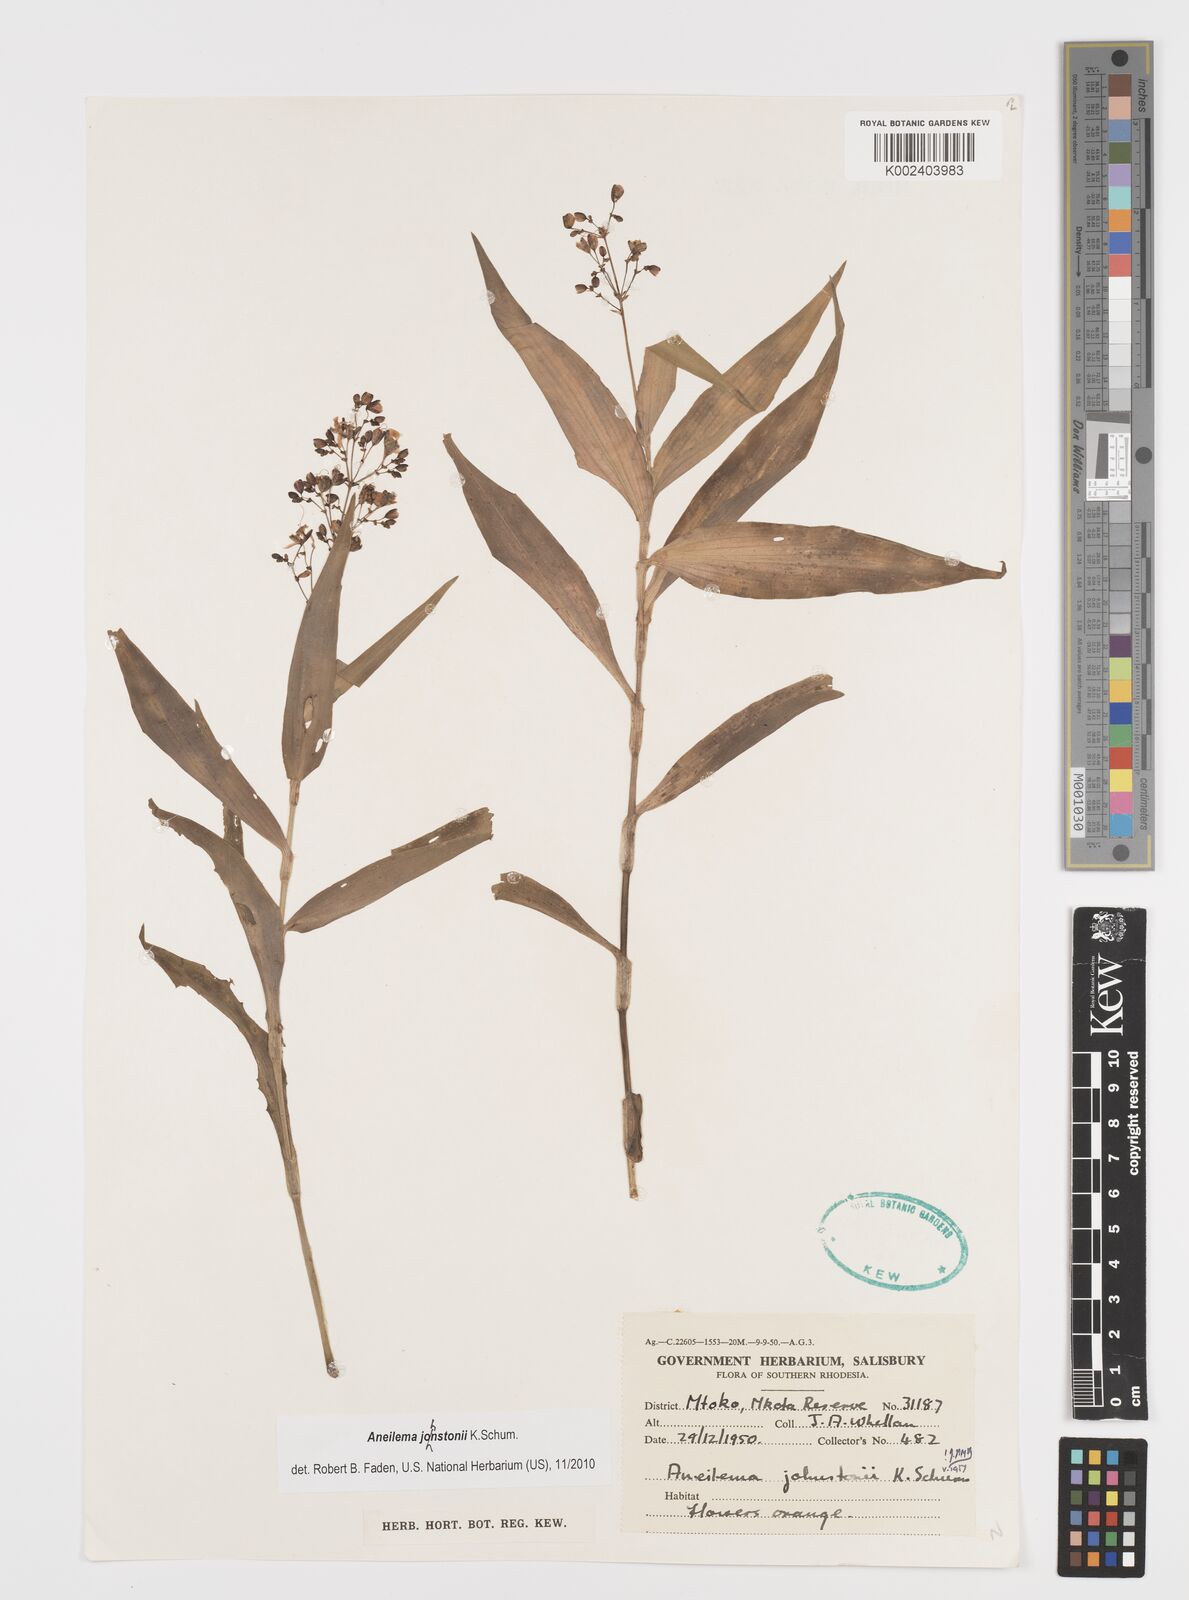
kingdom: Plantae
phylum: Tracheophyta
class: Liliopsida
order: Commelinales
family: Commelinaceae
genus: Aneilema
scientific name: Aneilema johnstonii
